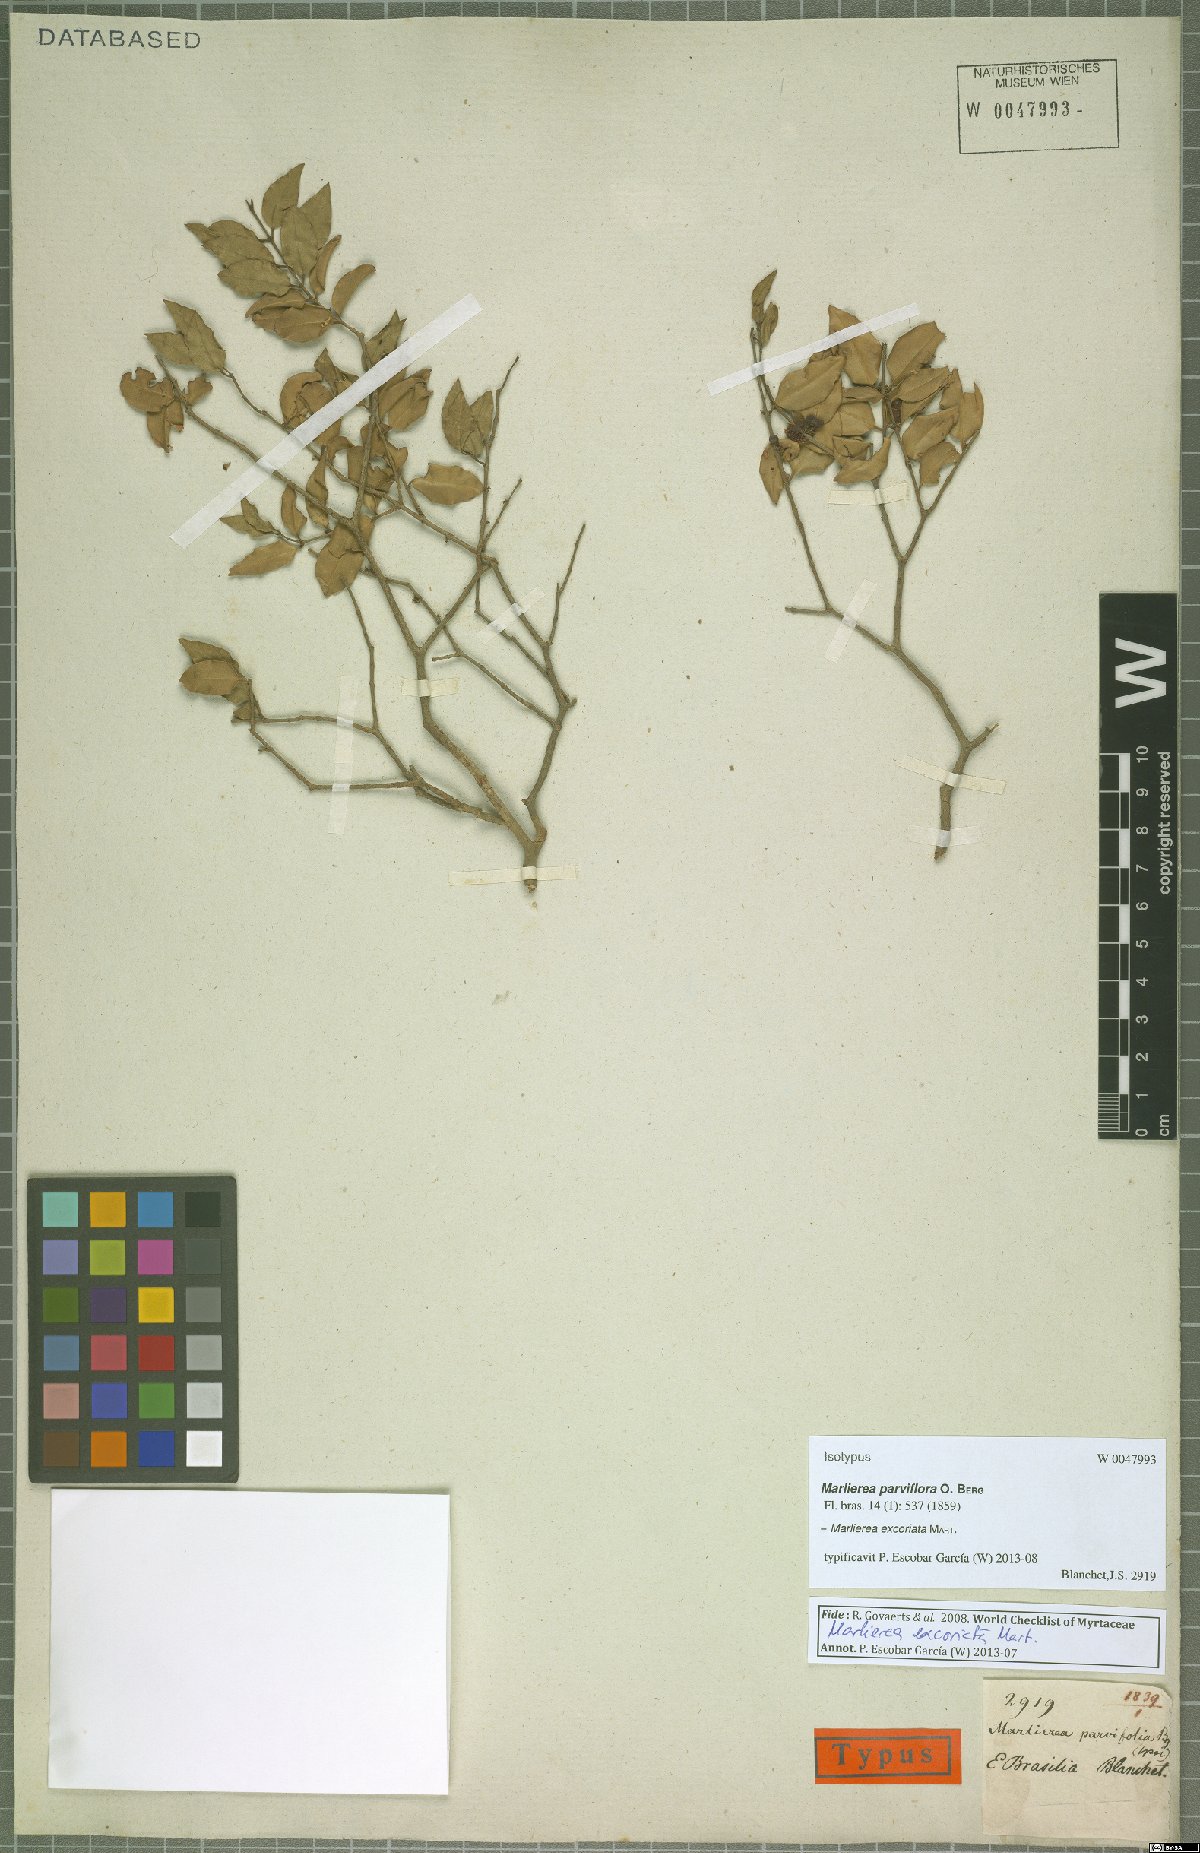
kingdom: Plantae
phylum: Tracheophyta
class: Magnoliopsida
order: Myrtales
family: Myrtaceae
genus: Myrcia
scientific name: Myrcia excoriata
